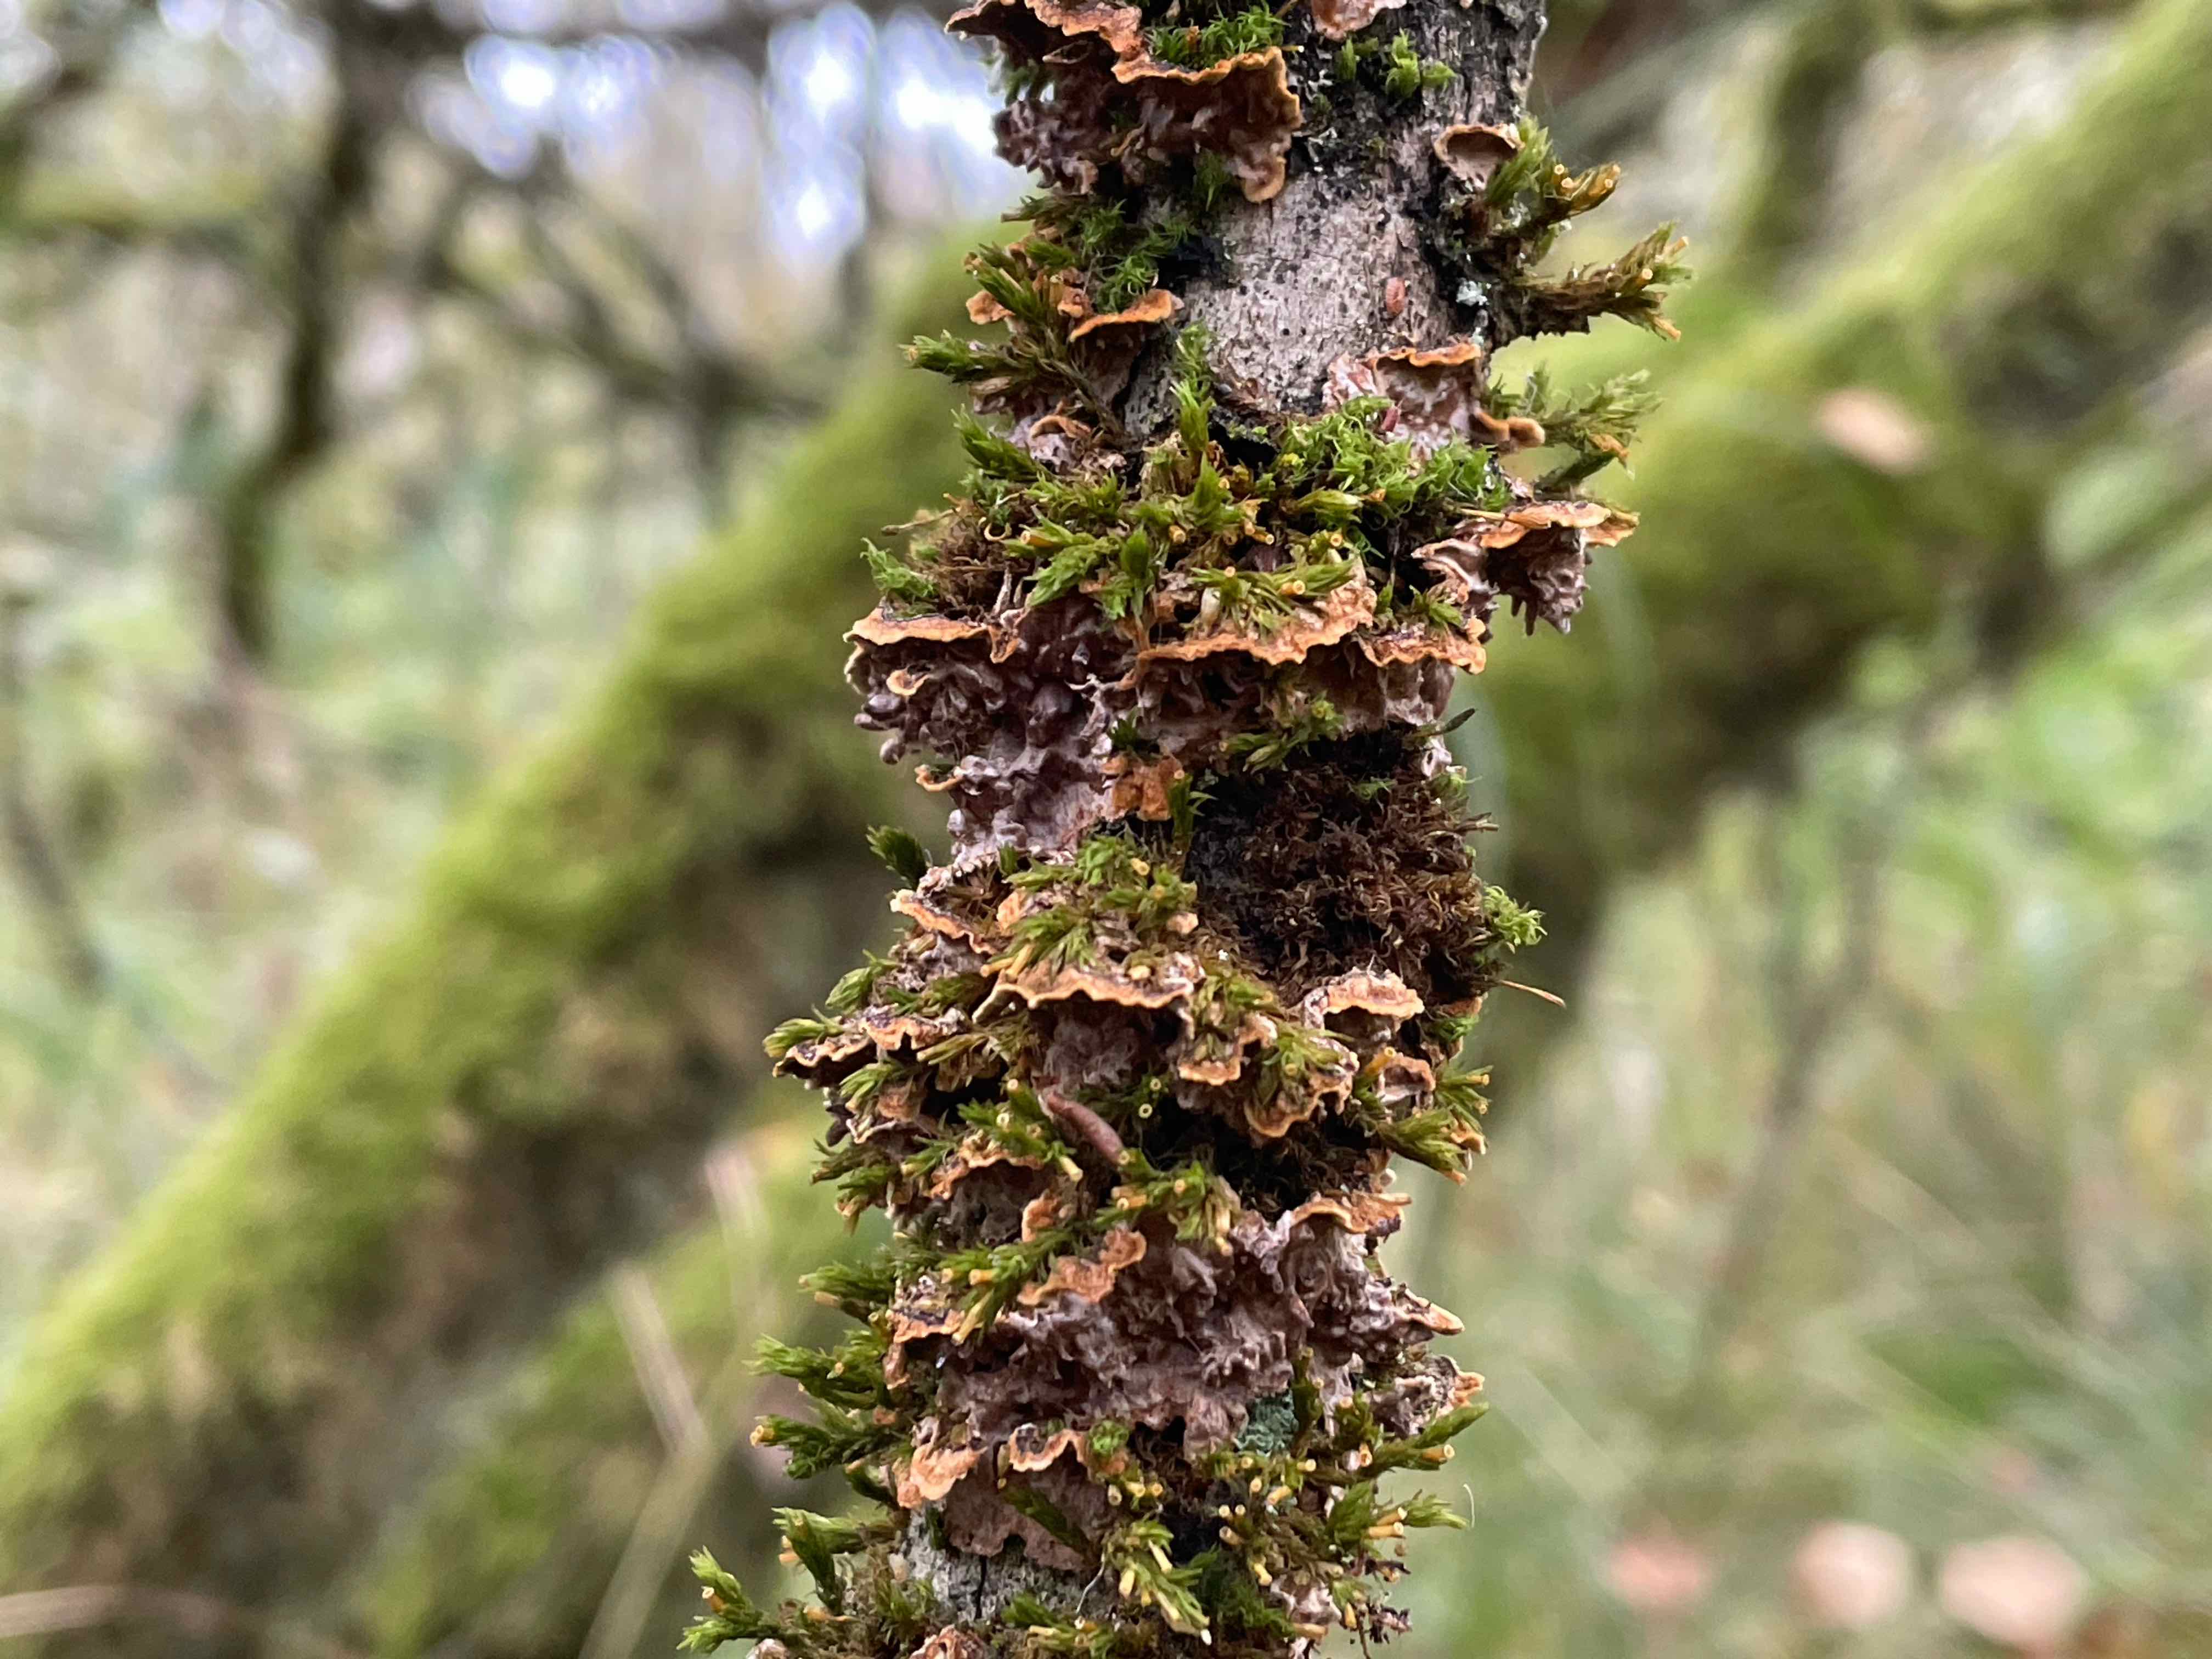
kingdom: Fungi
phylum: Basidiomycota
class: Agaricomycetes
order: Hymenochaetales
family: Hymenochaetaceae
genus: Hydnoporia
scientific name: Hydnoporia tabacina
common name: tobaksbrun ruslædersvamp
